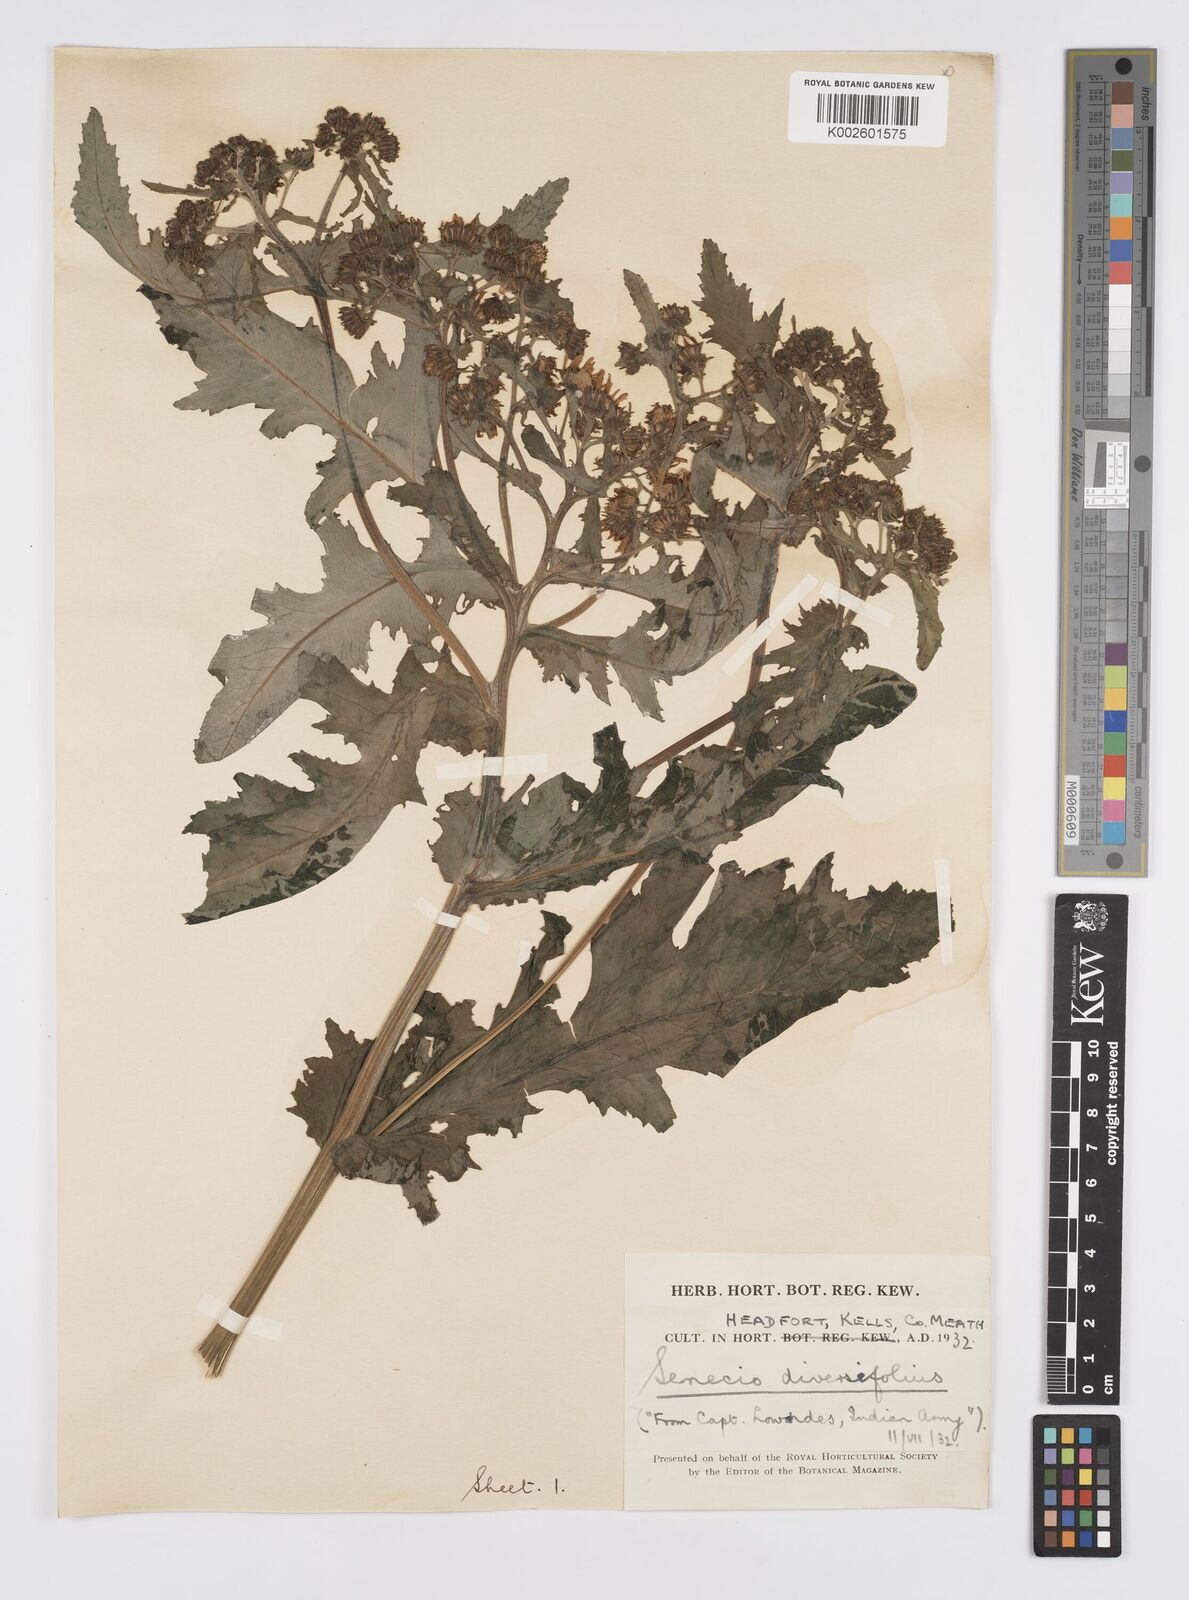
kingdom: Plantae
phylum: Tracheophyta
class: Magnoliopsida
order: Asterales
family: Asteraceae
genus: Jacobaea
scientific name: Jacobaea raphanifolia
